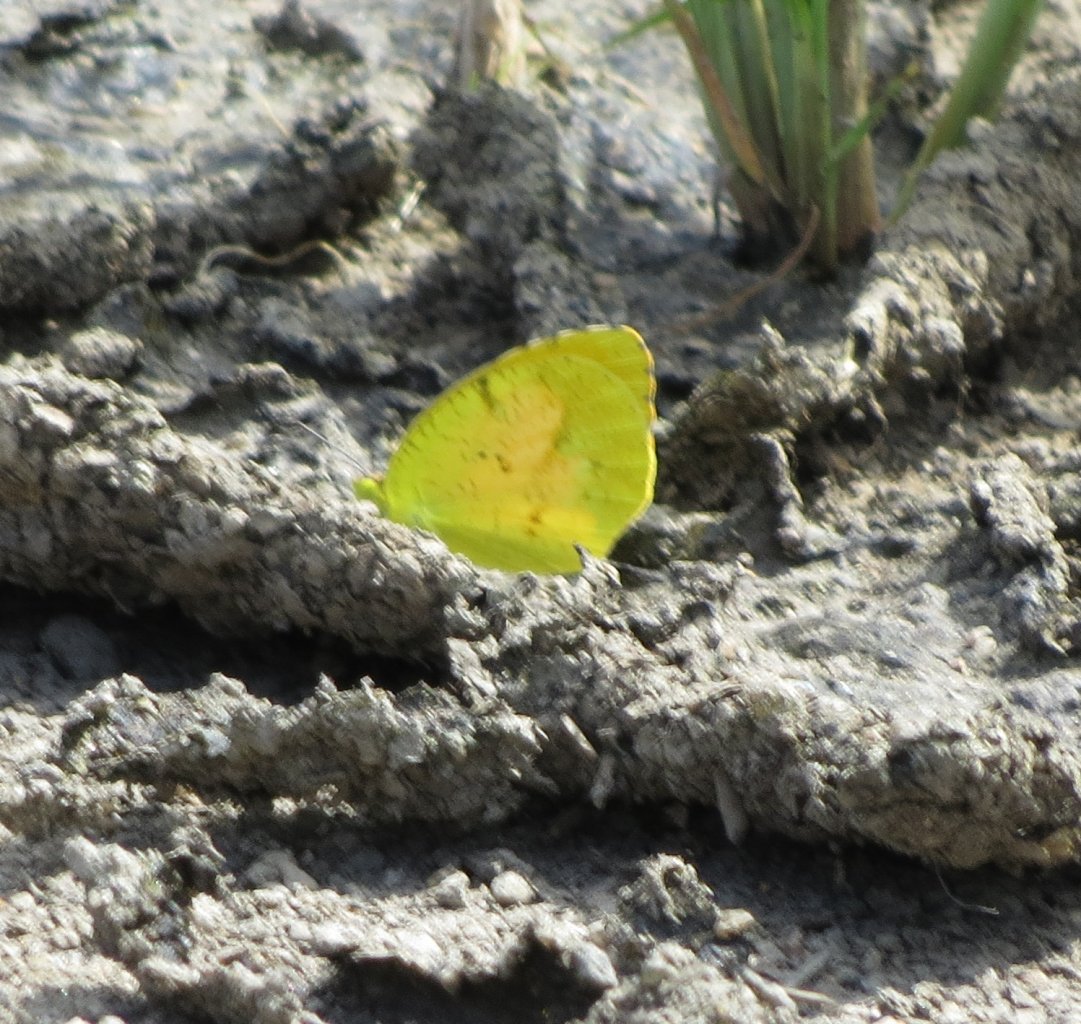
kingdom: Animalia
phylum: Arthropoda
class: Insecta
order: Lepidoptera
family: Pieridae
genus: Abaeis
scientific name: Abaeis nicippe
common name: Sleepy Orange
